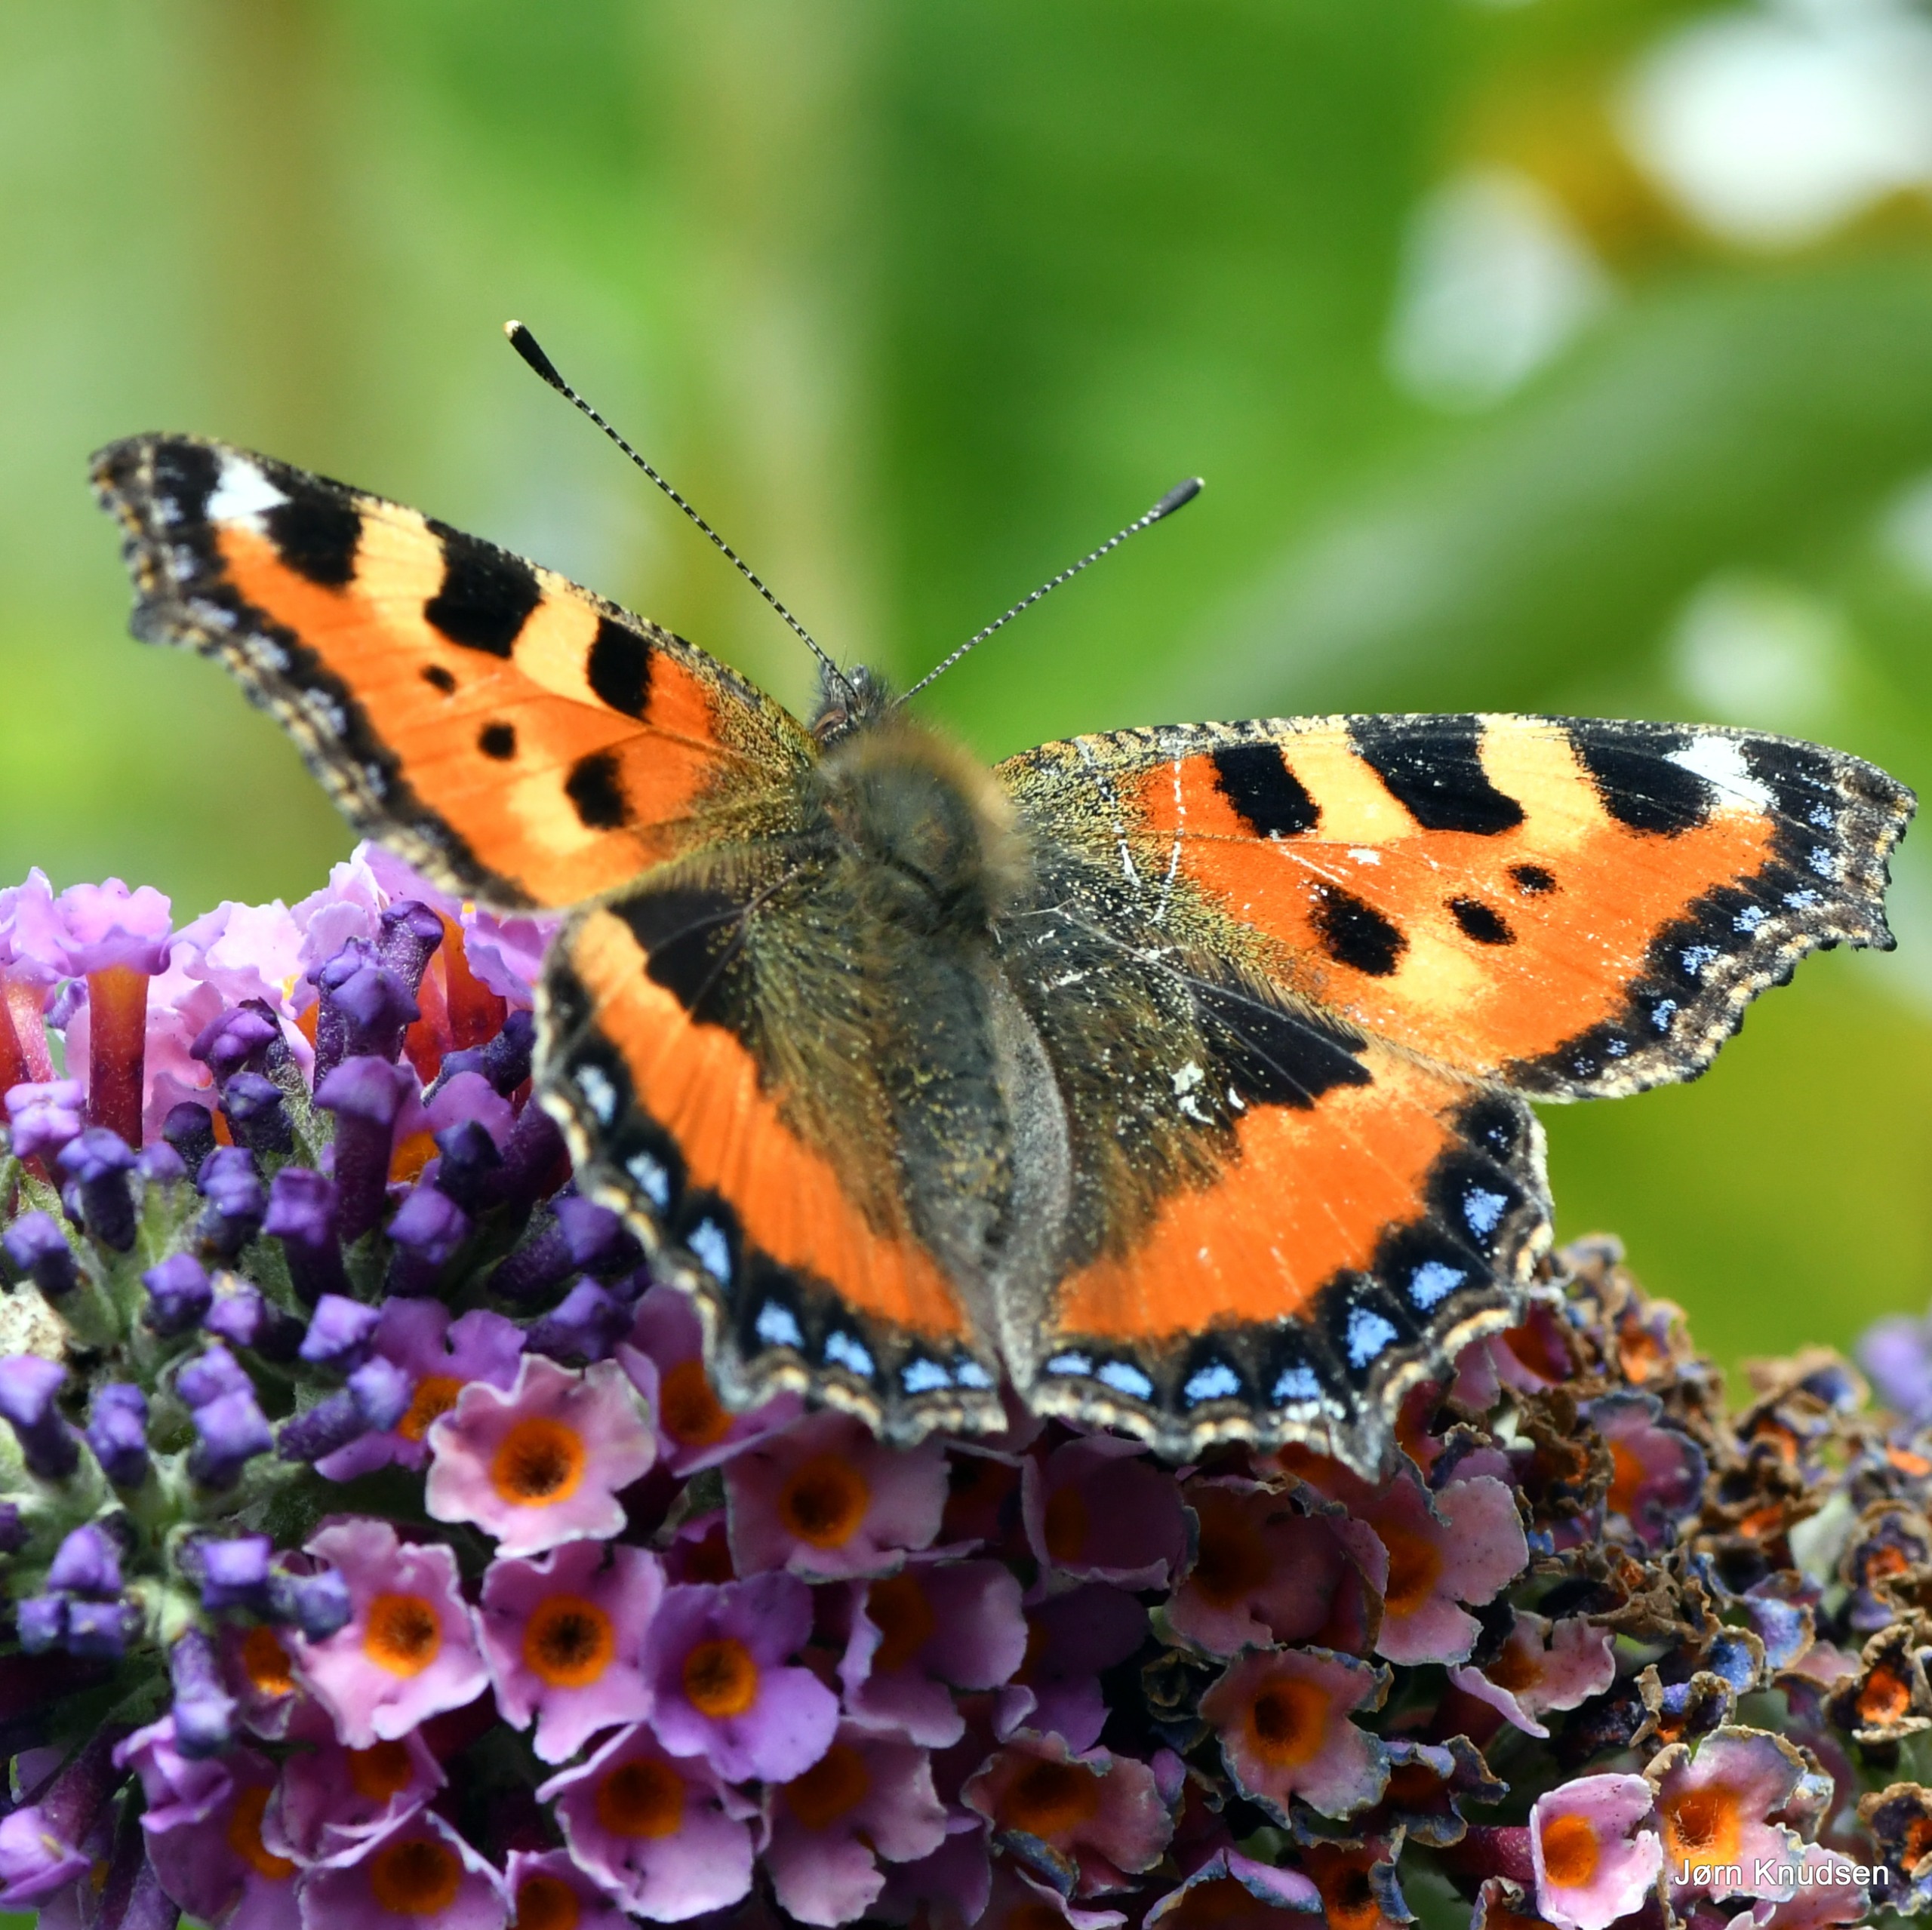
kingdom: Animalia
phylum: Arthropoda
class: Insecta
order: Lepidoptera
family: Nymphalidae
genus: Aglais
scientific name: Aglais urticae
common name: Nældens takvinge
